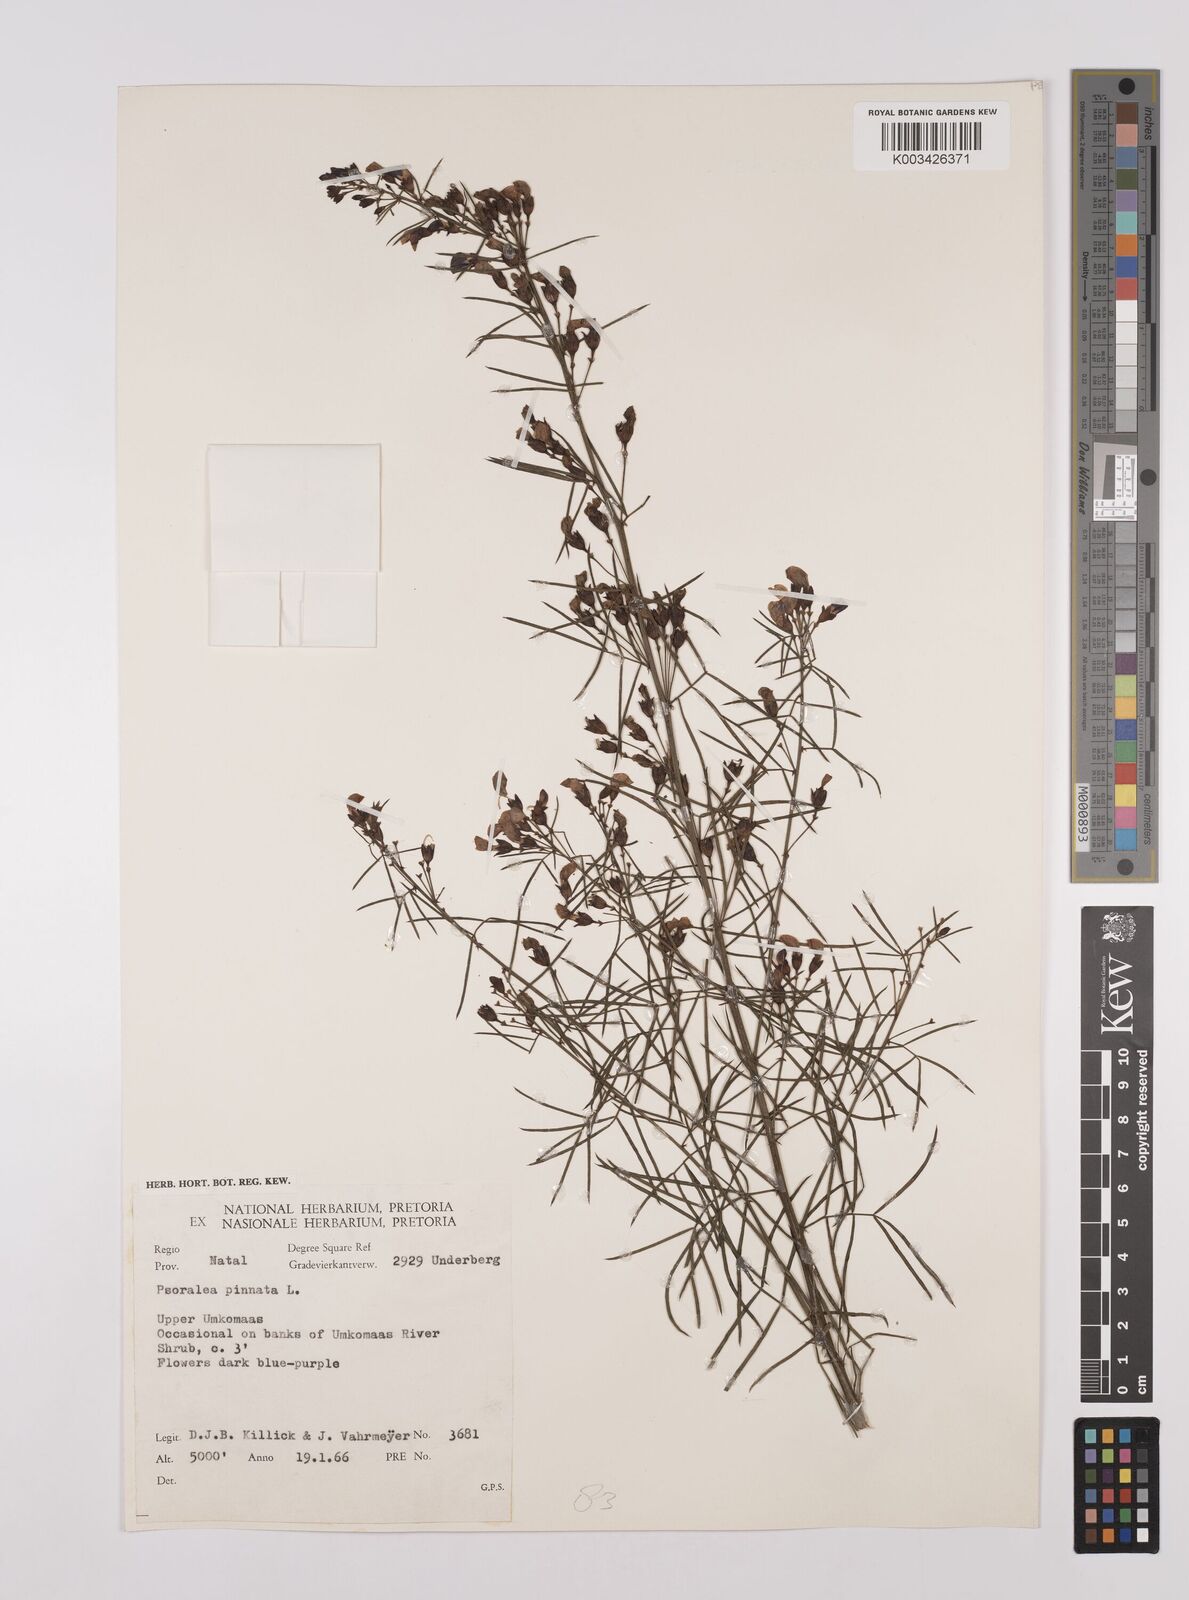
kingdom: Plantae
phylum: Tracheophyta
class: Magnoliopsida
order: Fabales
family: Fabaceae
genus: Psoralea
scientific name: Psoralea rhizotoma
